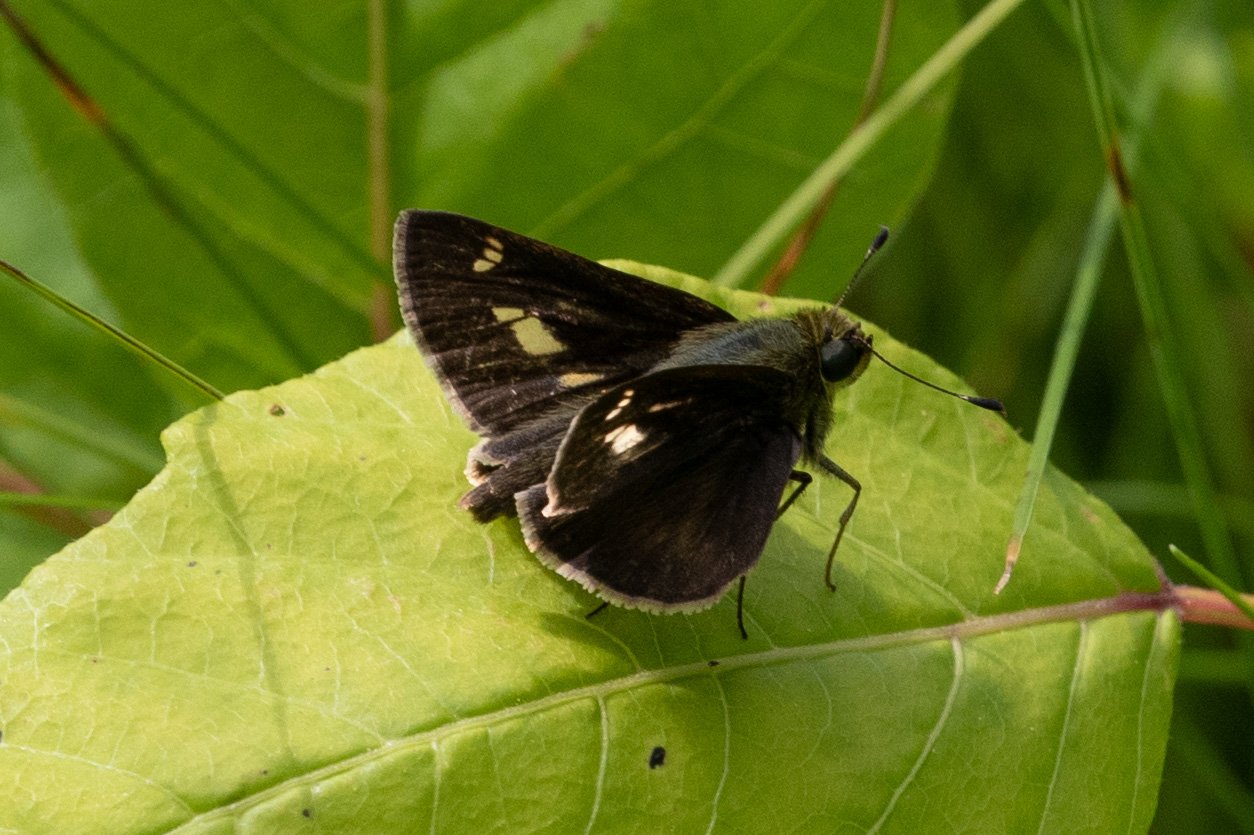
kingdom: Animalia
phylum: Arthropoda
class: Insecta
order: Lepidoptera
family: Hesperiidae
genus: Vernia
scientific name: Vernia verna
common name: Little Glassywing
